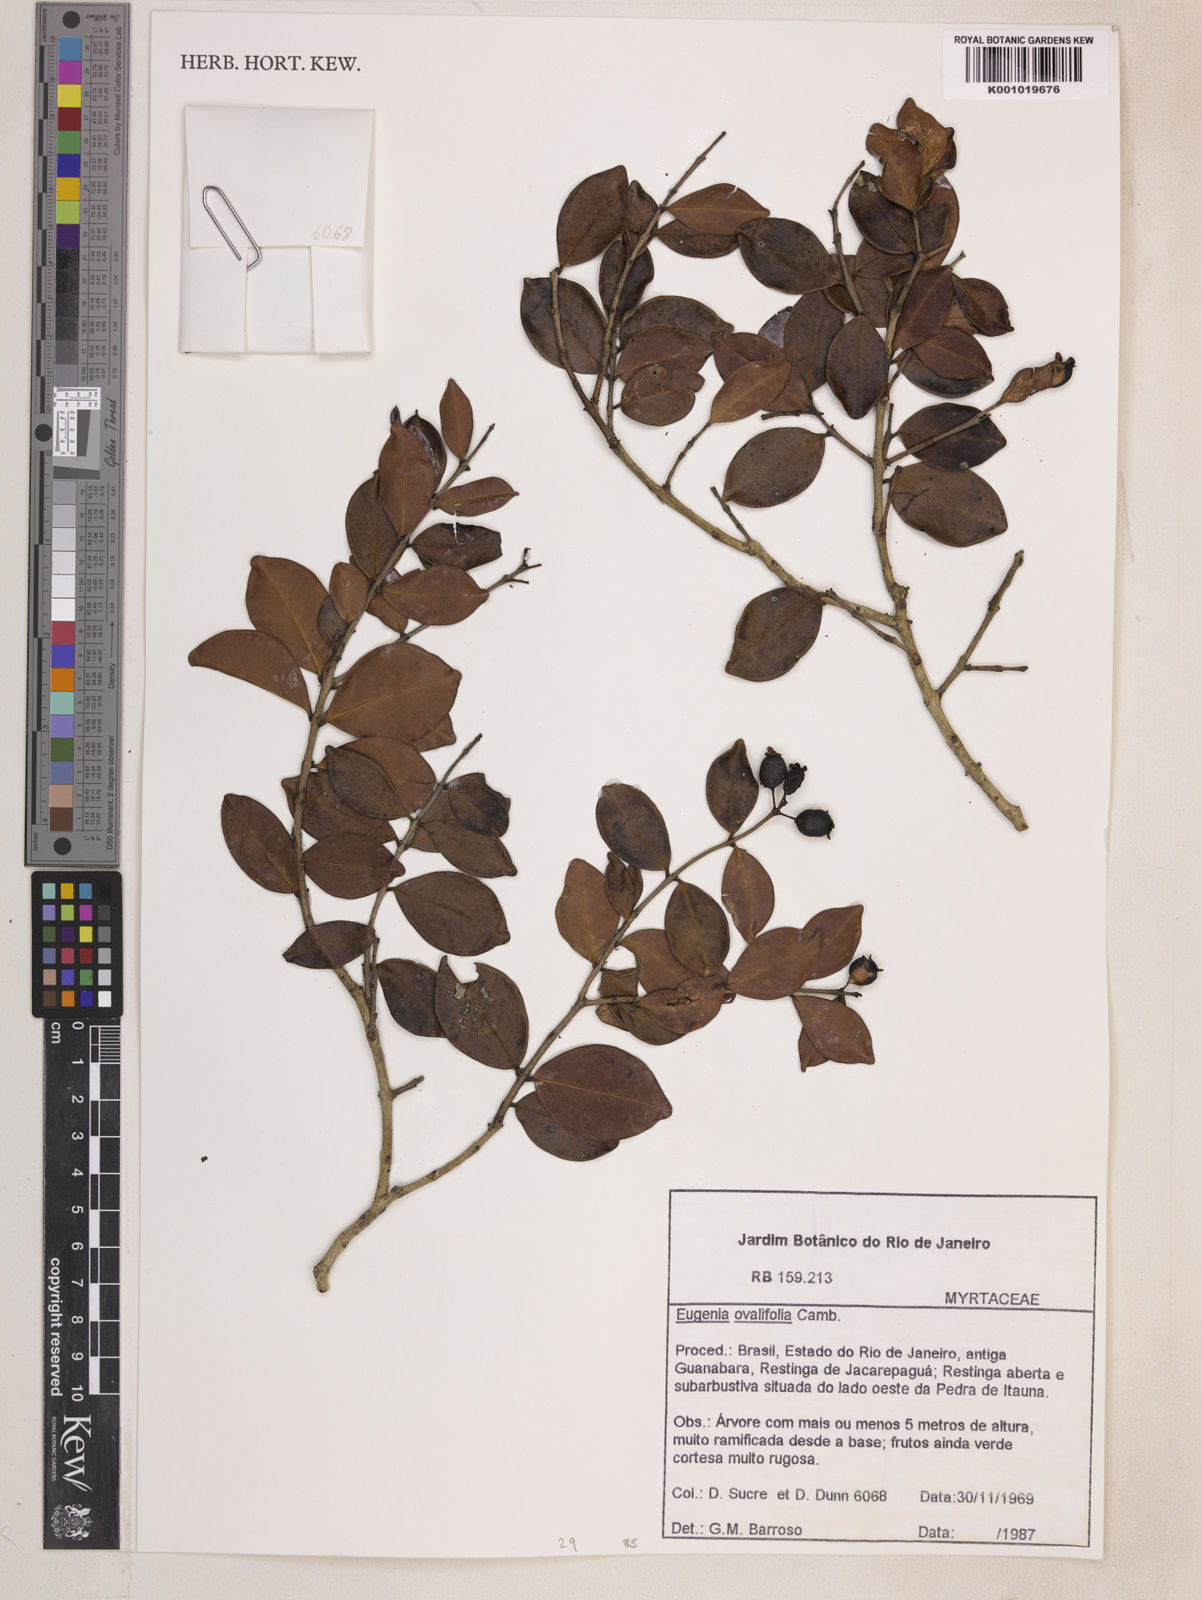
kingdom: Plantae
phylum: Tracheophyta
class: Magnoliopsida
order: Myrtales
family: Myrtaceae
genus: Eugenia
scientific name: Eugenia punicifolia
